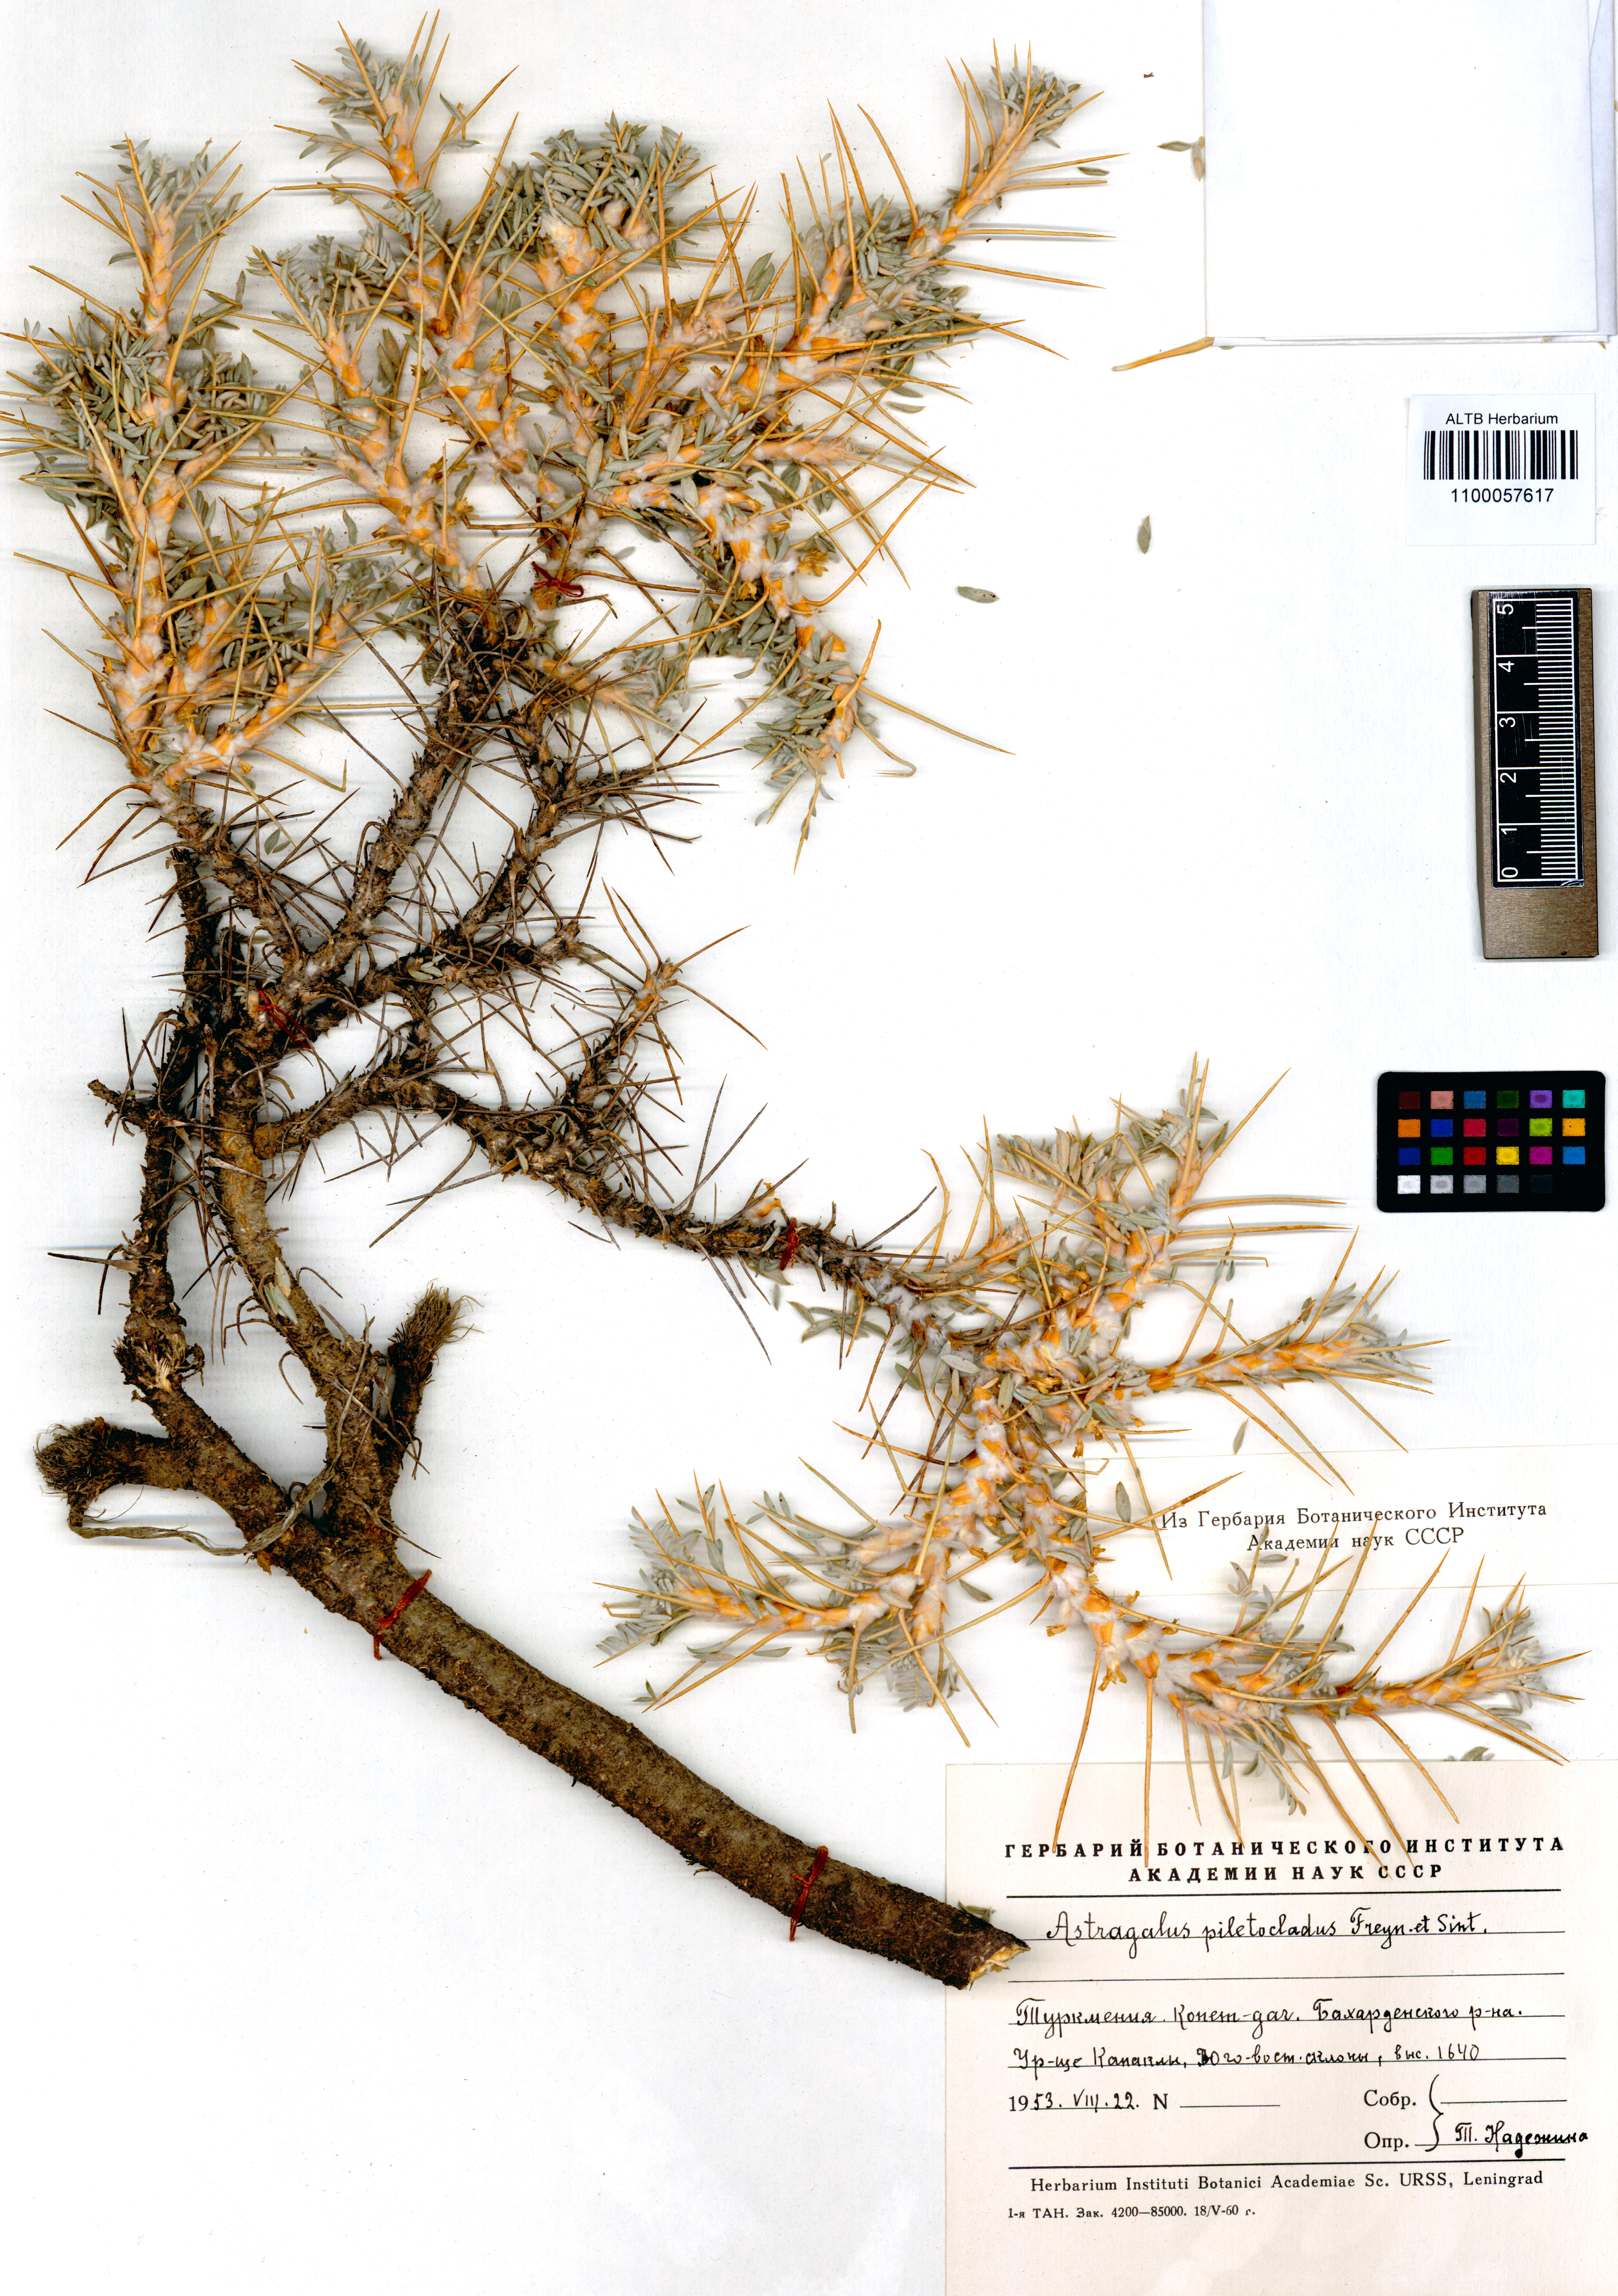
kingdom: Plantae
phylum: Tracheophyta
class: Magnoliopsida
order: Fabales
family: Fabaceae
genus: Astragalus
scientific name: Astragalus verus
